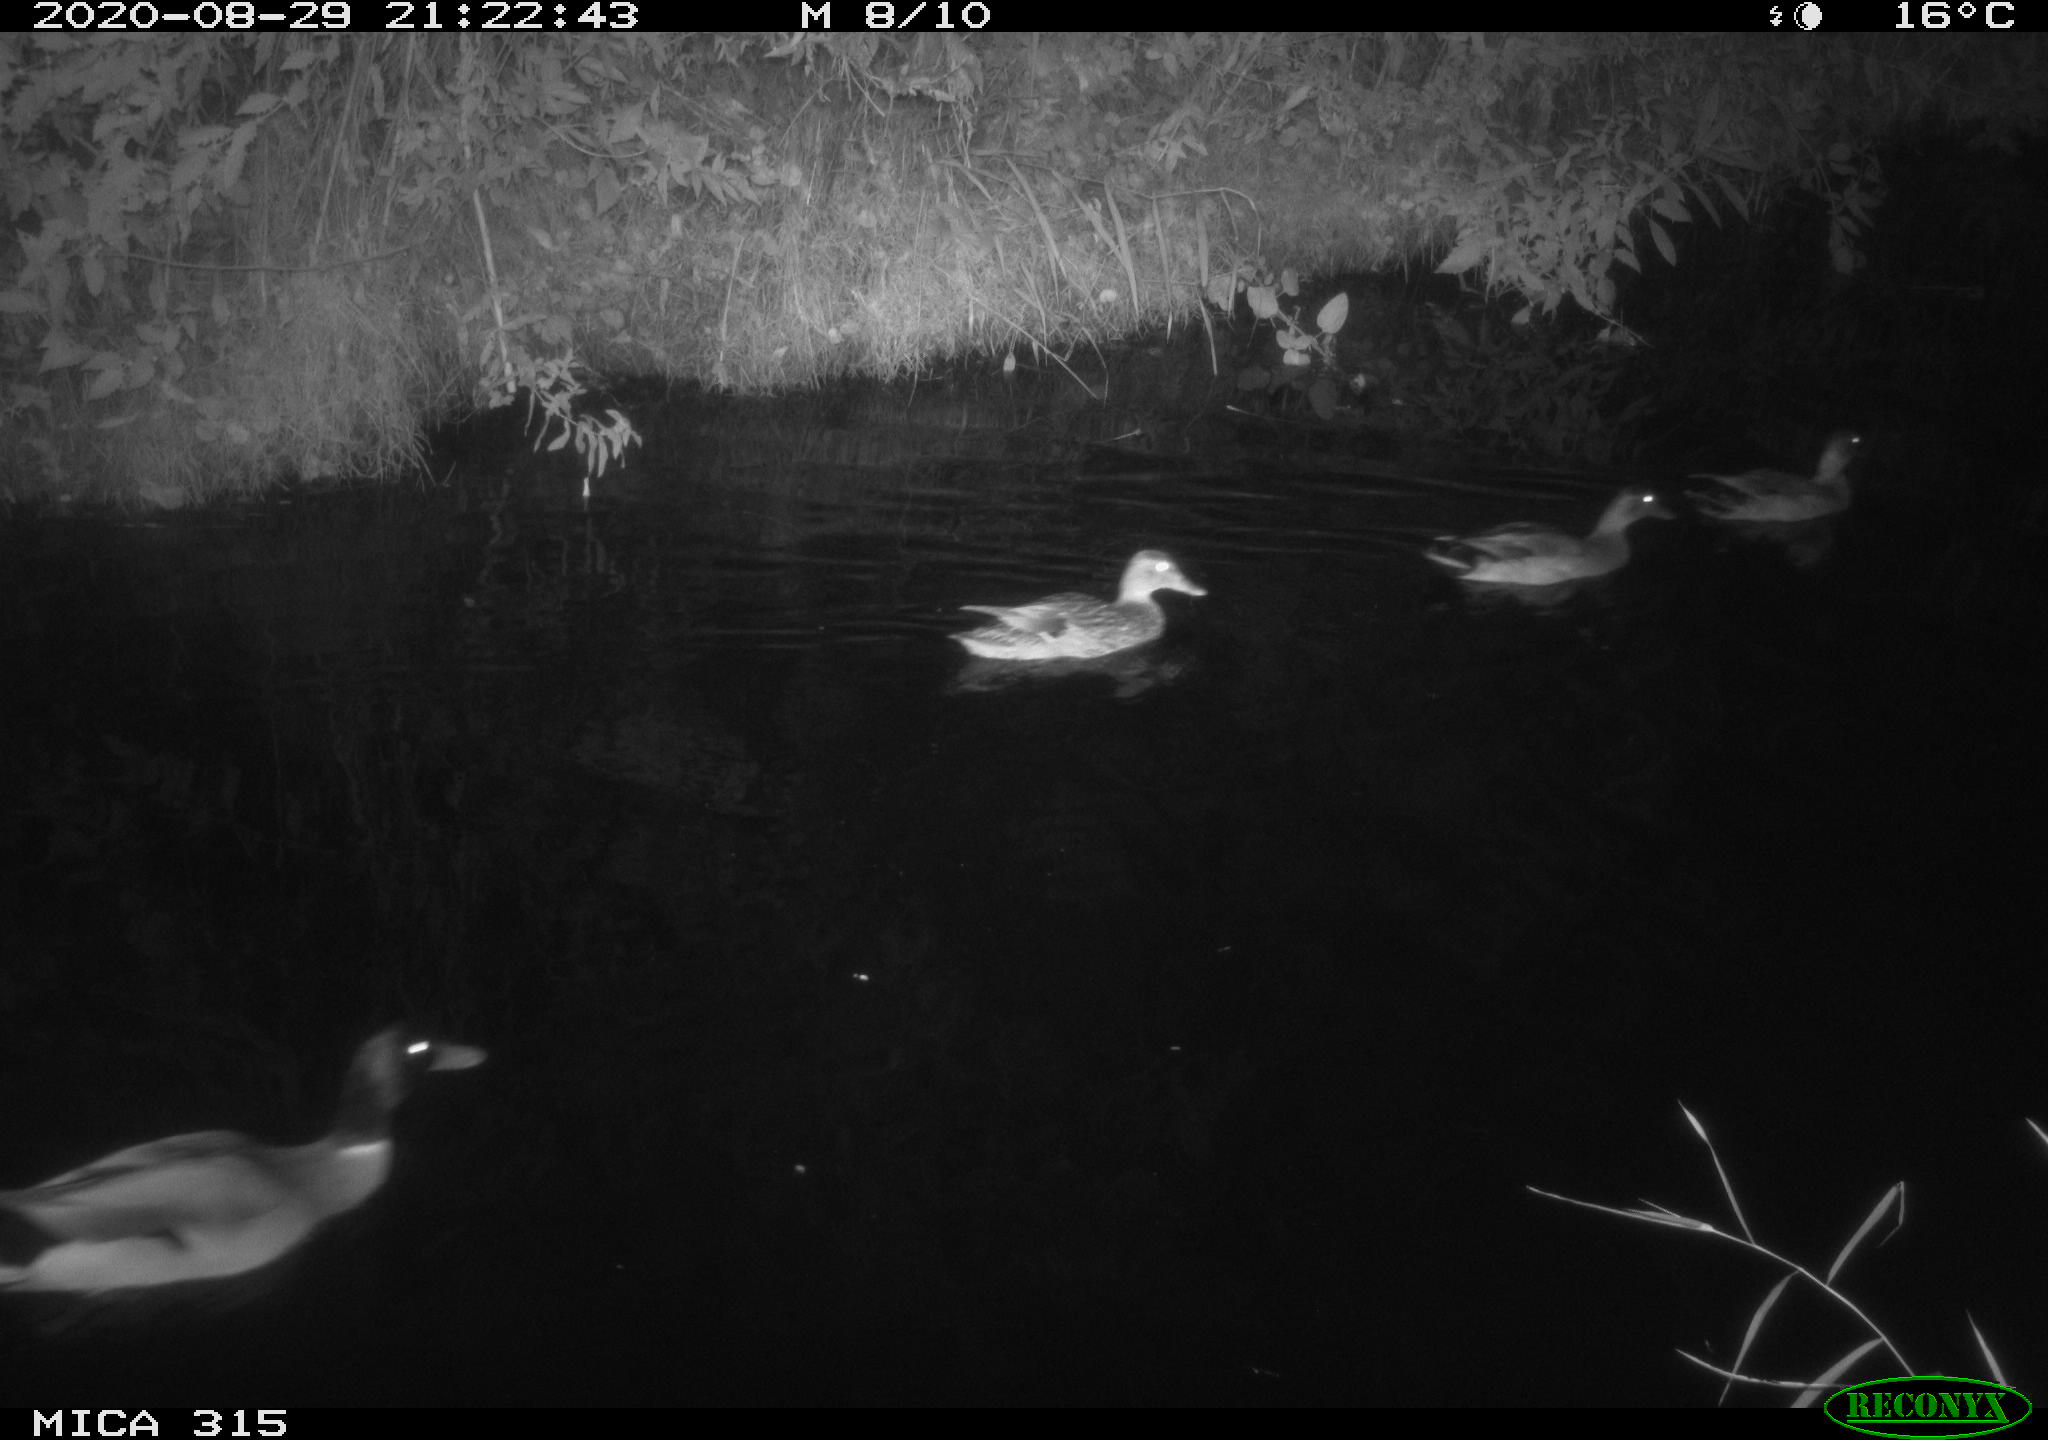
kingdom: Animalia
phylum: Chordata
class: Aves
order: Anseriformes
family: Anatidae
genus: Anas
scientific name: Anas platyrhynchos
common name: Mallard
